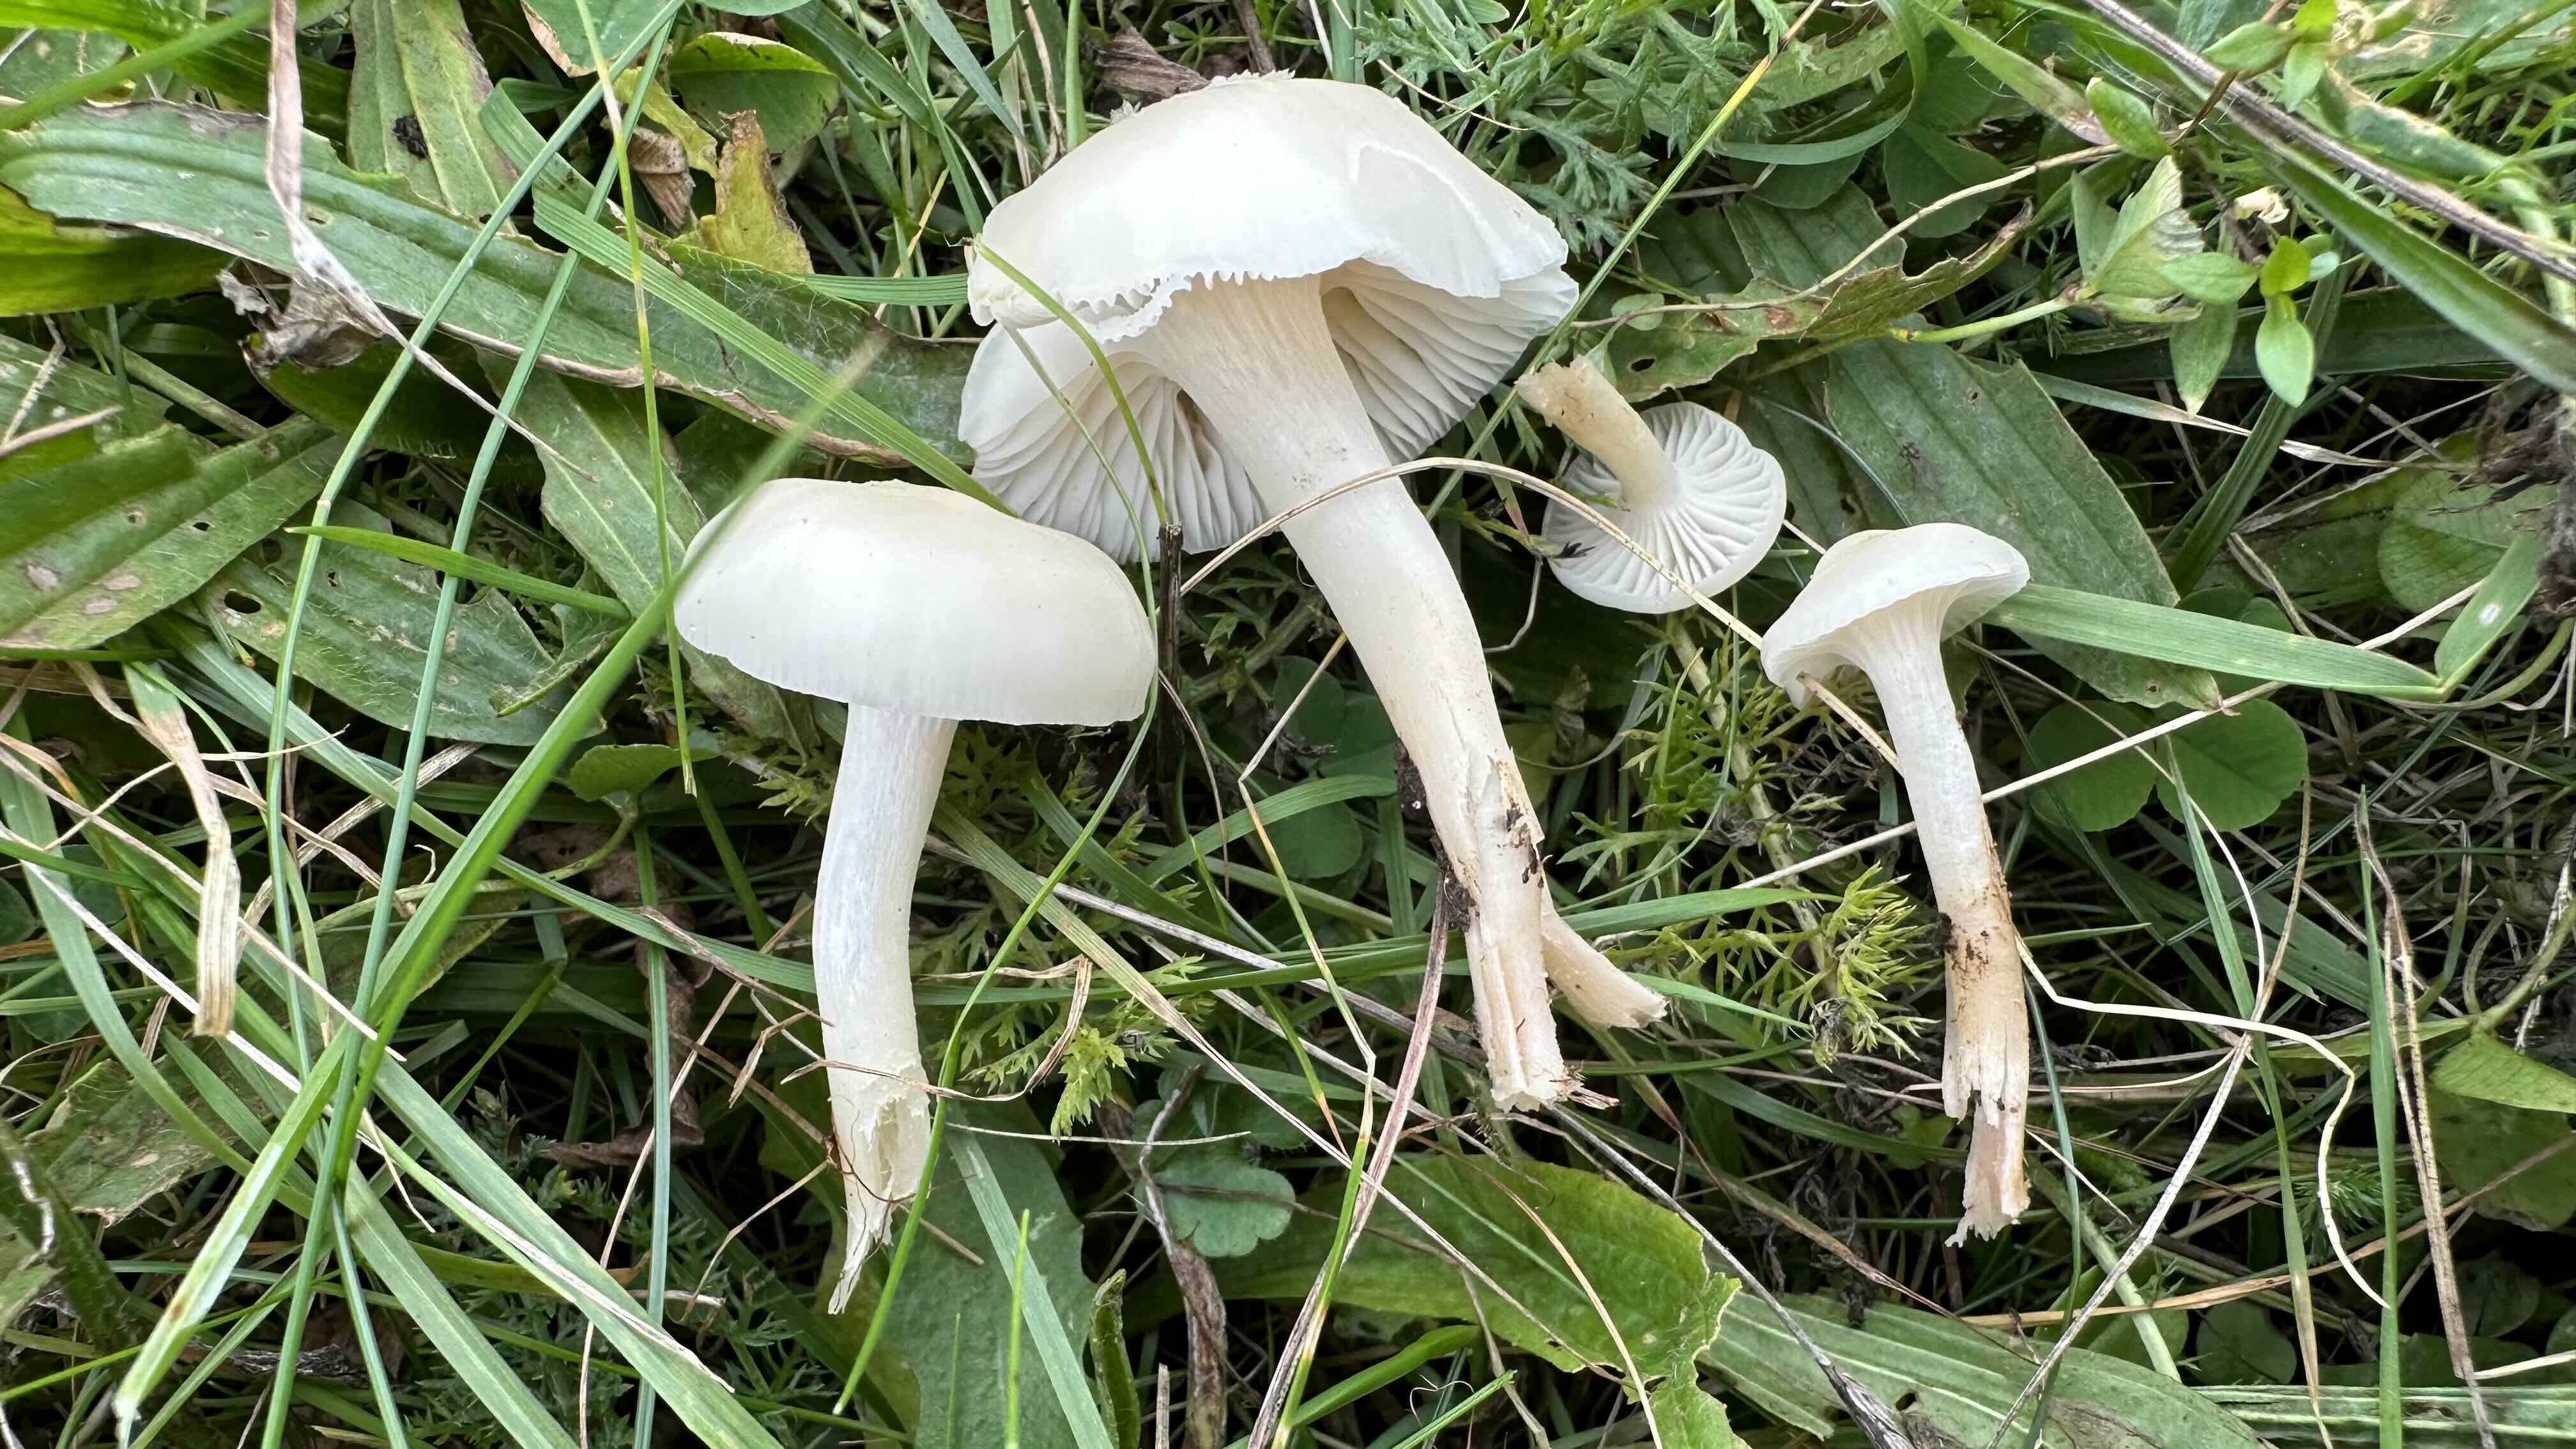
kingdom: Fungi
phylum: Basidiomycota
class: Agaricomycetes
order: Agaricales
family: Hygrophoraceae
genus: Cuphophyllus
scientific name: Cuphophyllus virgineus
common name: snehvid vokshat
